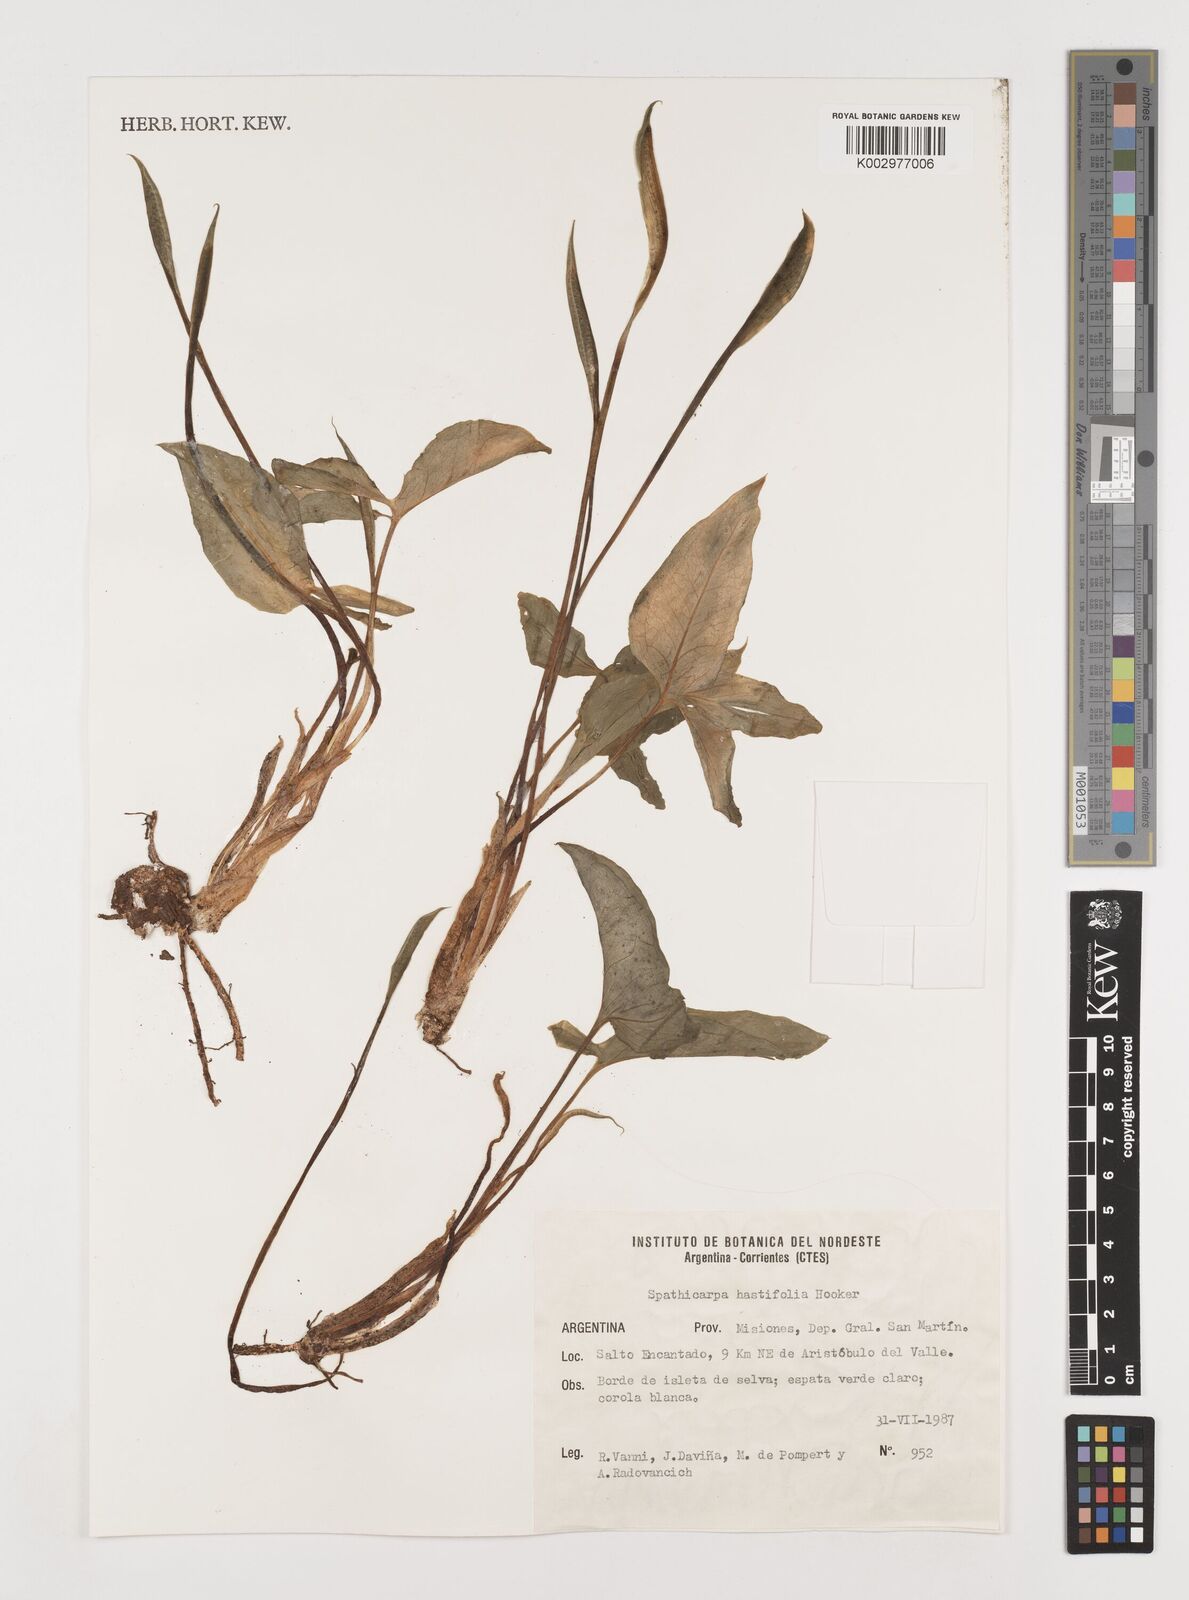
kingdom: Plantae
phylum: Tracheophyta
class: Liliopsida
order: Alismatales
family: Araceae
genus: Spathicarpa
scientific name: Spathicarpa hastifolia
